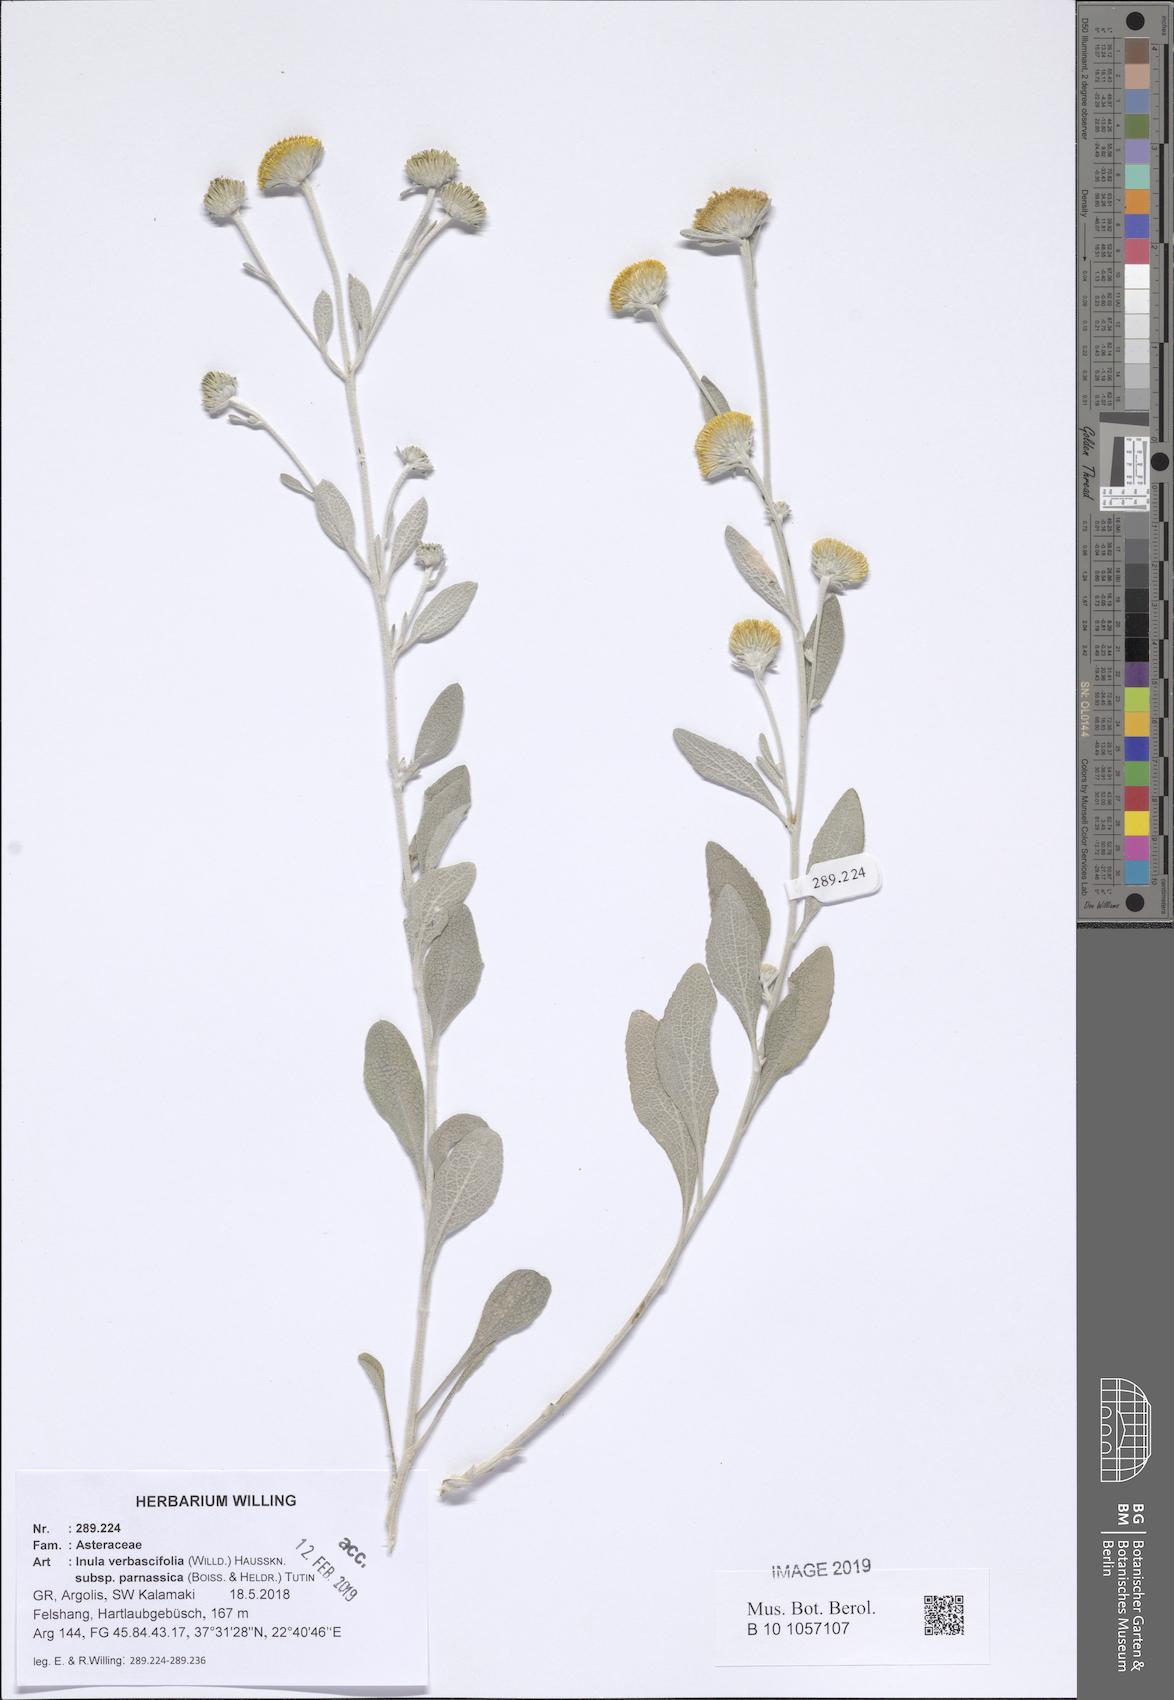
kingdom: Plantae
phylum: Tracheophyta
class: Magnoliopsida
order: Asterales
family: Asteraceae
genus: Pentanema
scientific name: Pentanema verbascifolium
